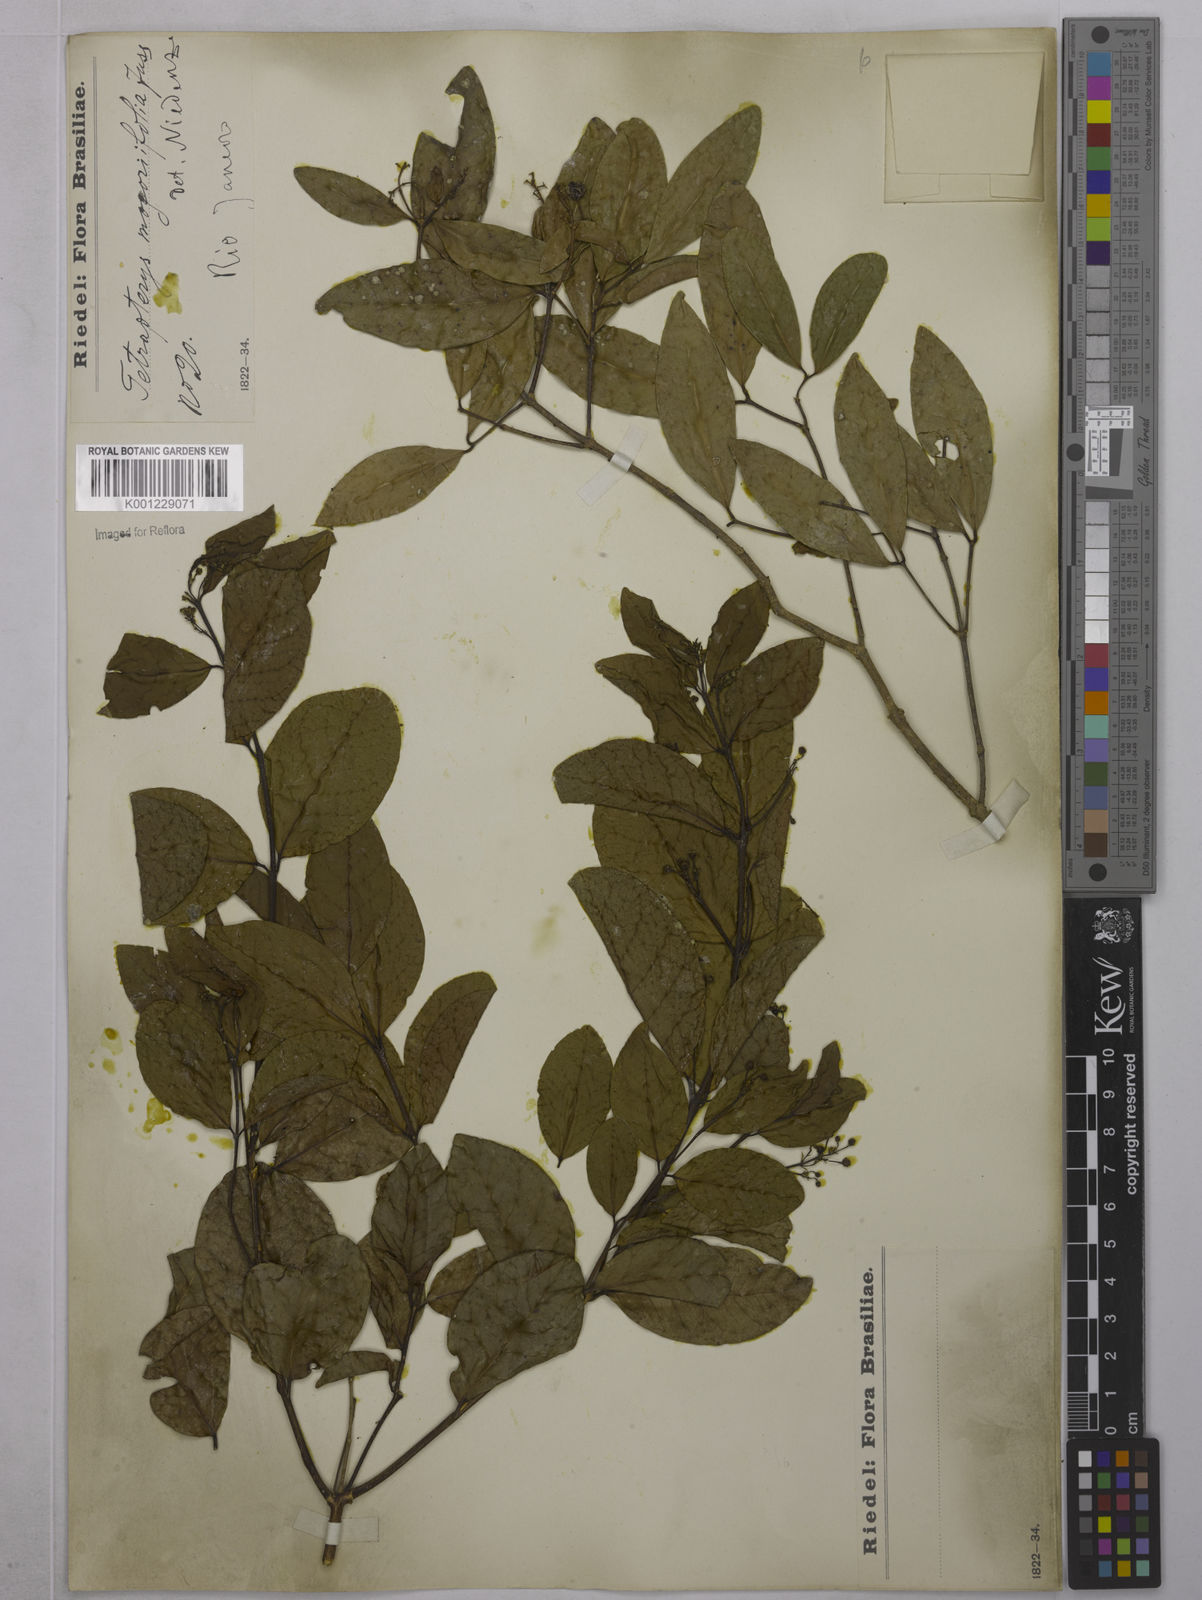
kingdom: Plantae
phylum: Tracheophyta
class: Magnoliopsida
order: Malpighiales
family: Malpighiaceae
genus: Niedenzuella
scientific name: Niedenzuella mogoriifolia
